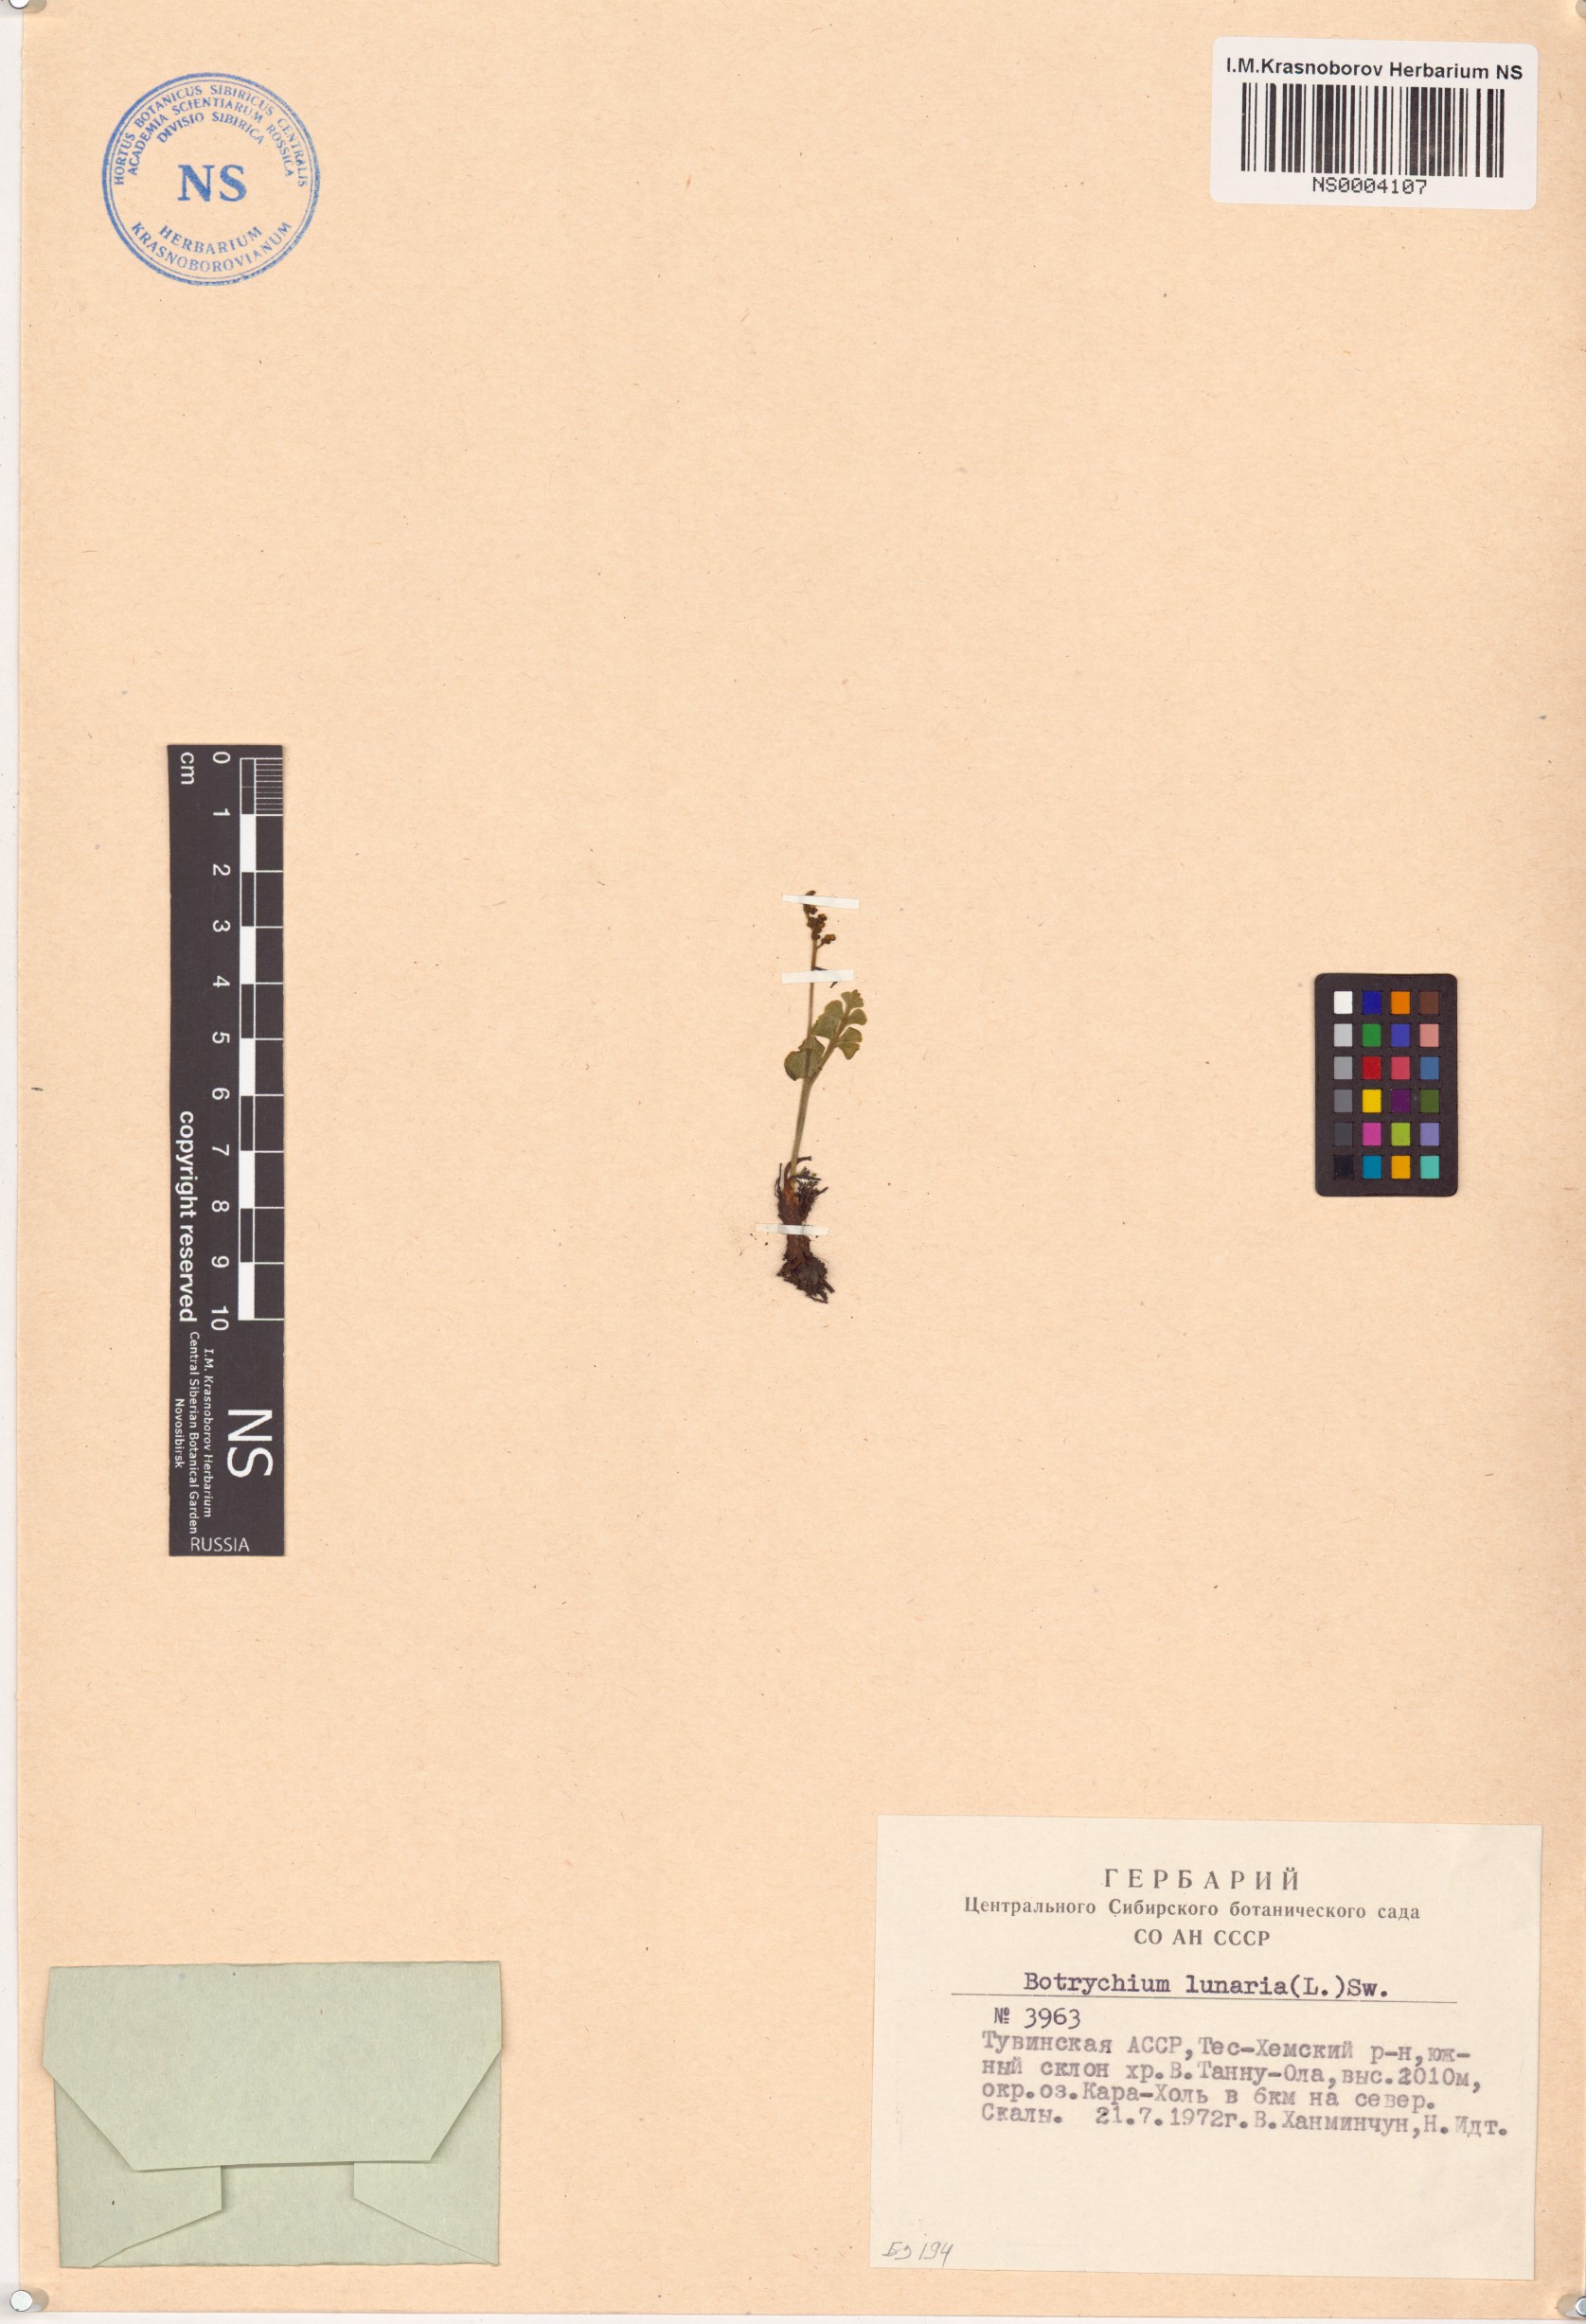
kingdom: Plantae
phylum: Tracheophyta
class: Polypodiopsida
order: Ophioglossales
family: Ophioglossaceae
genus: Botrychium
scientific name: Botrychium lunaria
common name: Moonwort
